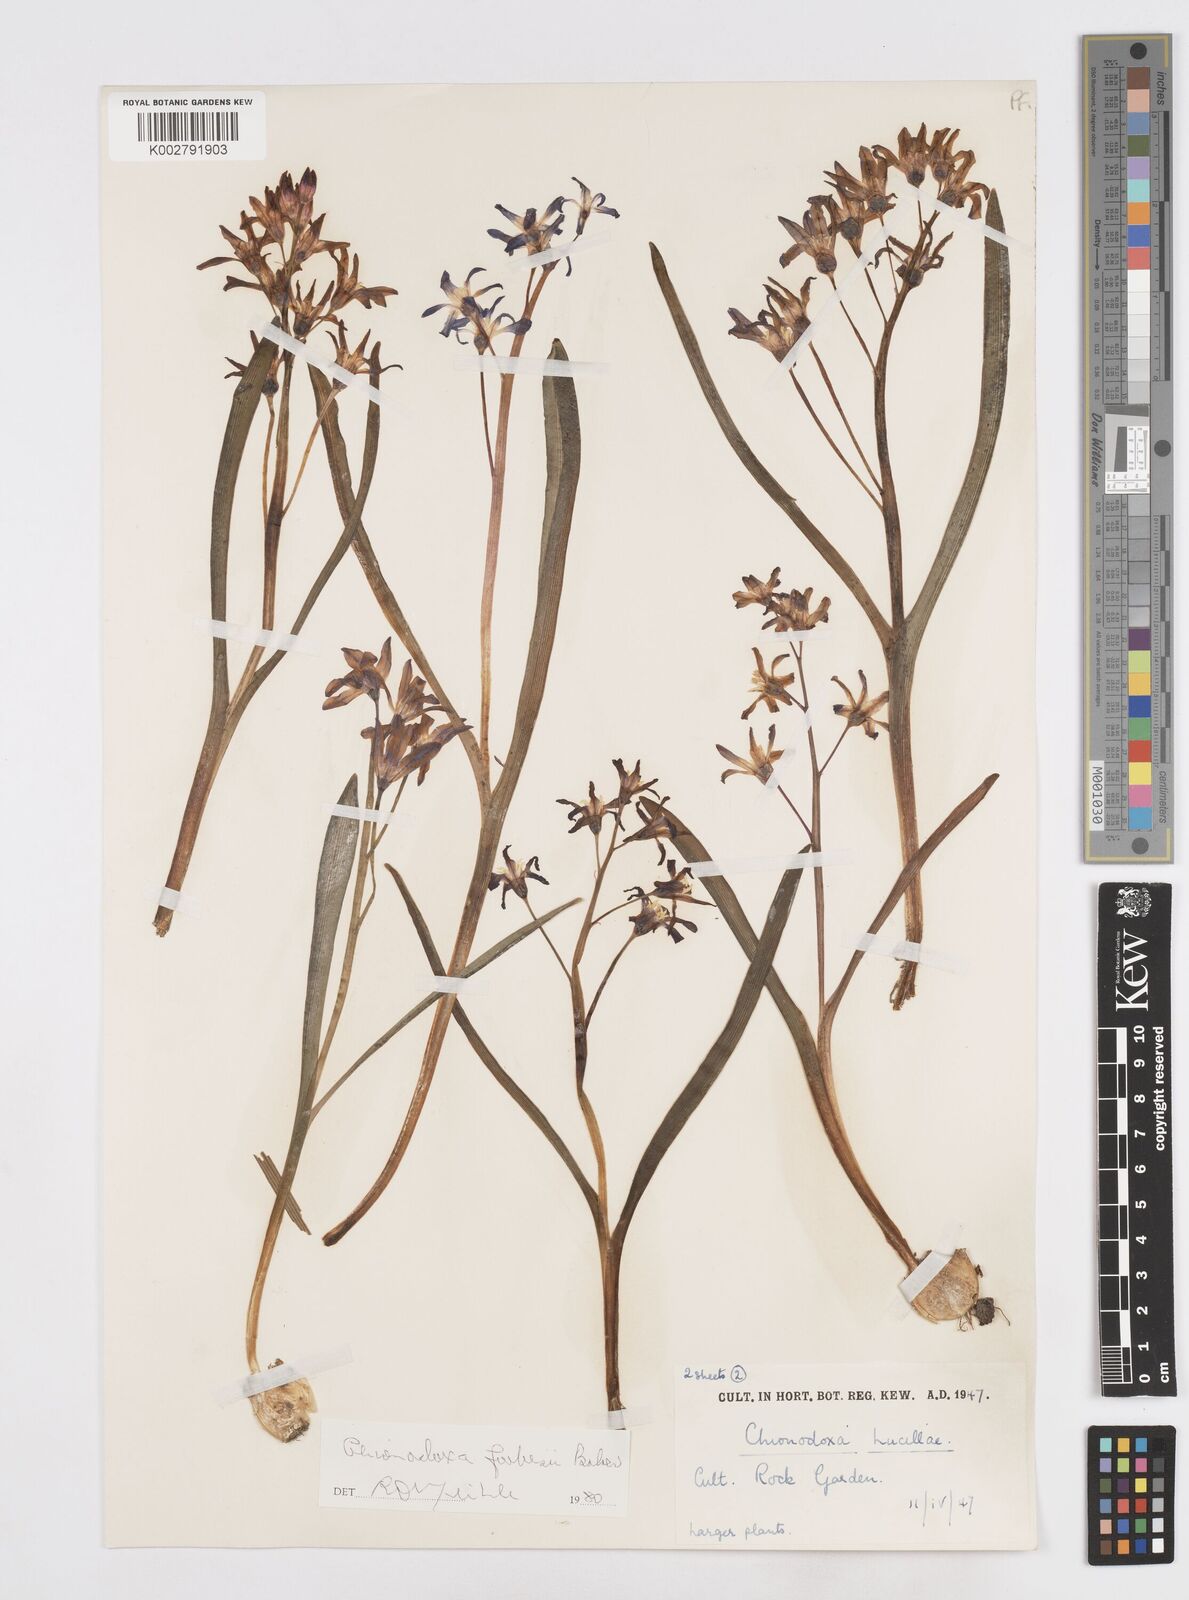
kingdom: Plantae
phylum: Tracheophyta
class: Liliopsida
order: Asparagales
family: Asparagaceae
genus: Scilla
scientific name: Scilla forbesii
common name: Glory-of-the-snow
